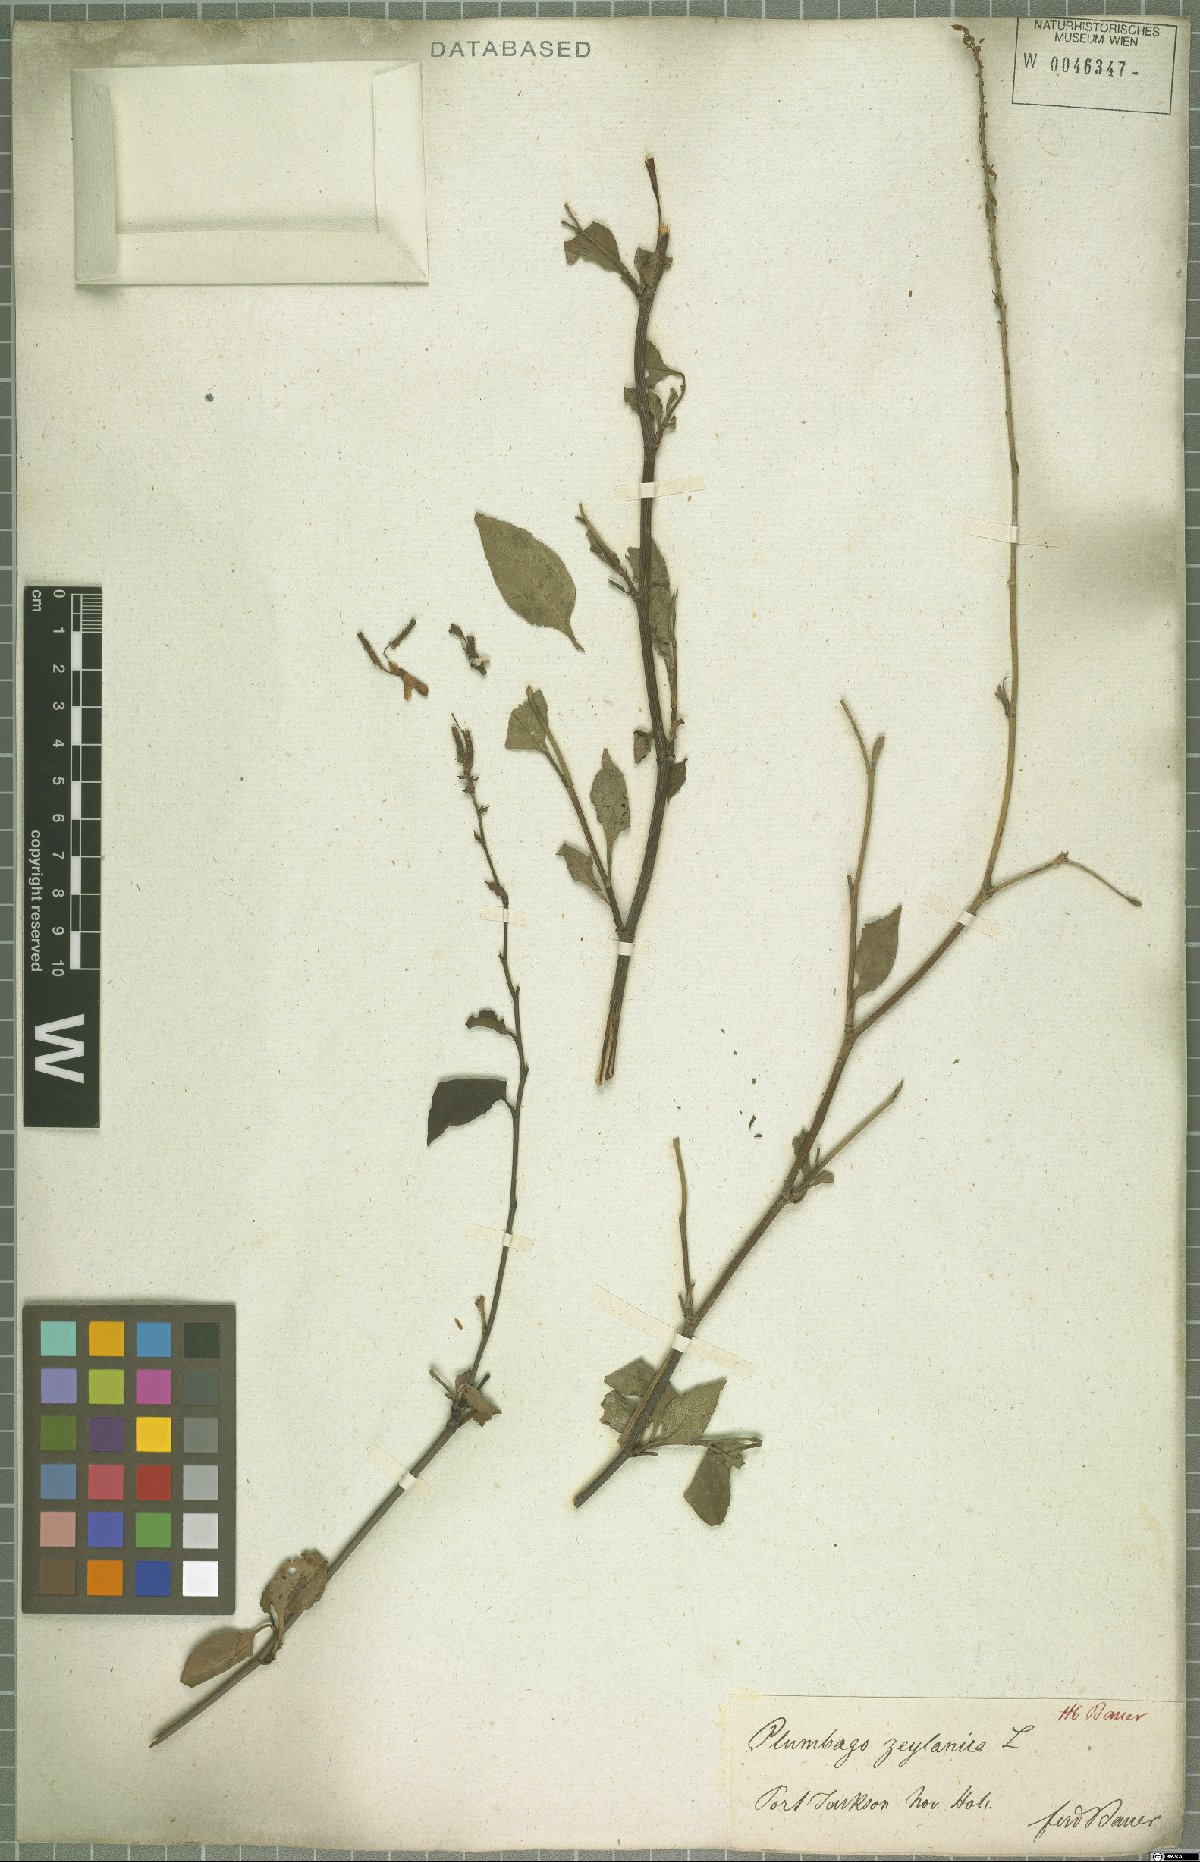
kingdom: Plantae
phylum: Tracheophyta
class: Magnoliopsida
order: Caryophyllales
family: Plumbaginaceae
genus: Plumbago
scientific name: Plumbago zeylanica
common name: Doctorbush
